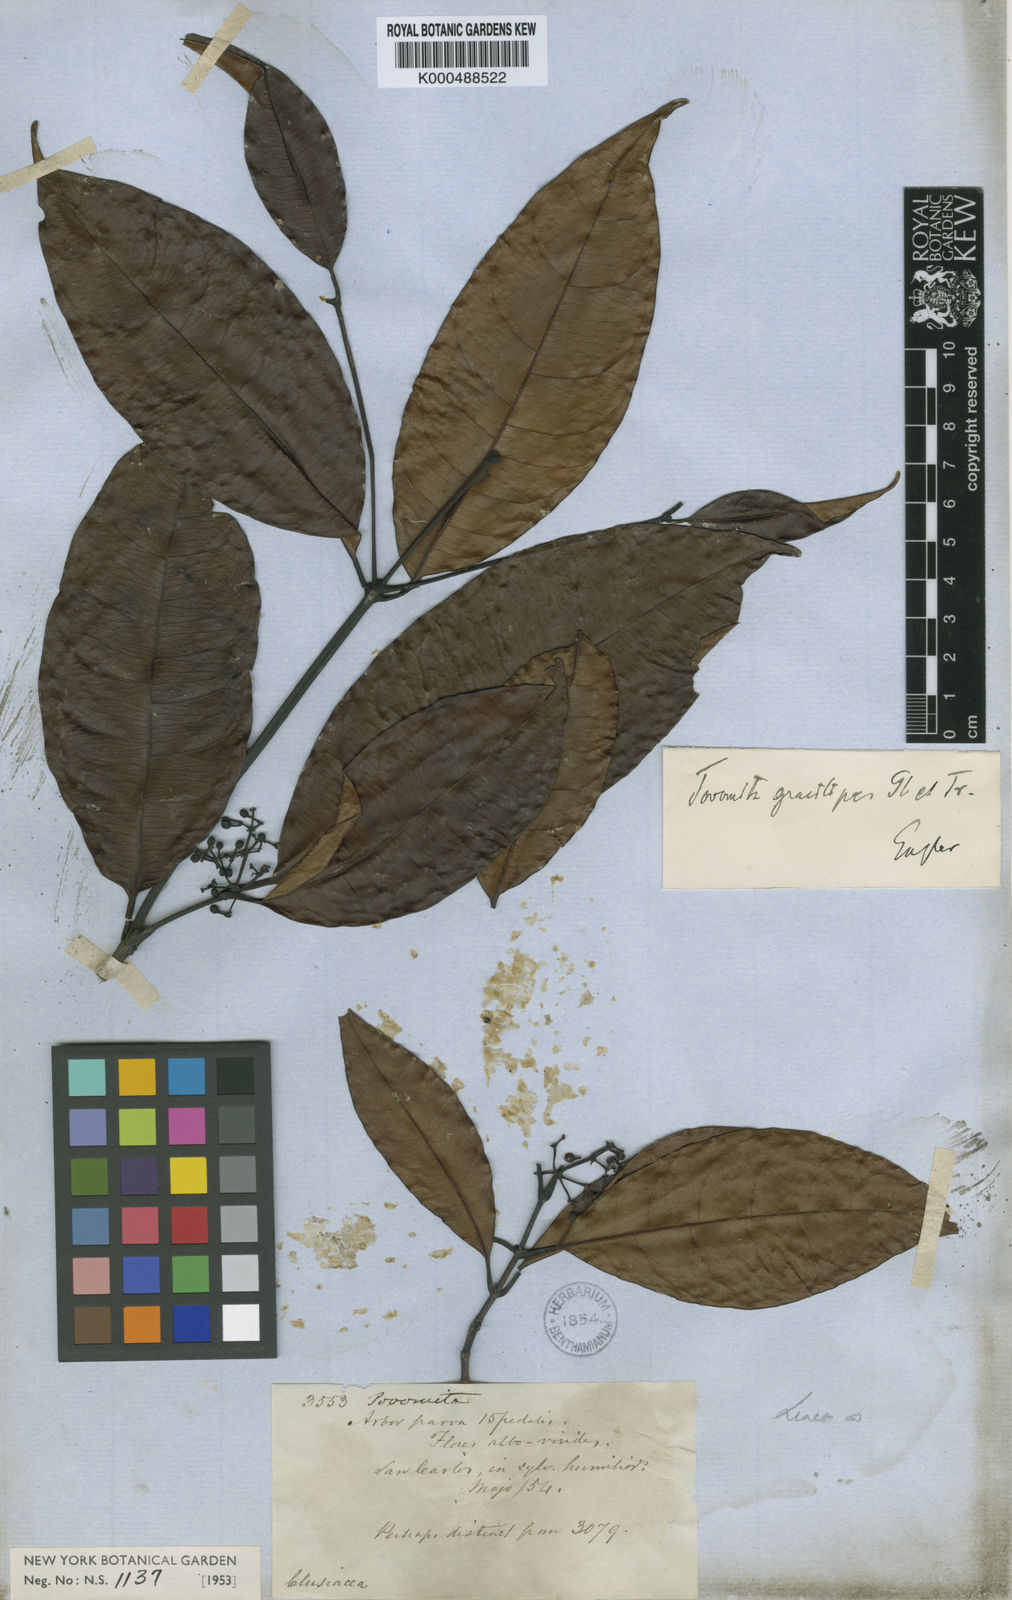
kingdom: Plantae
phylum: Tracheophyta
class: Magnoliopsida
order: Malpighiales
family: Clusiaceae
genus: Tovomita
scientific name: Tovomita gracilipes
